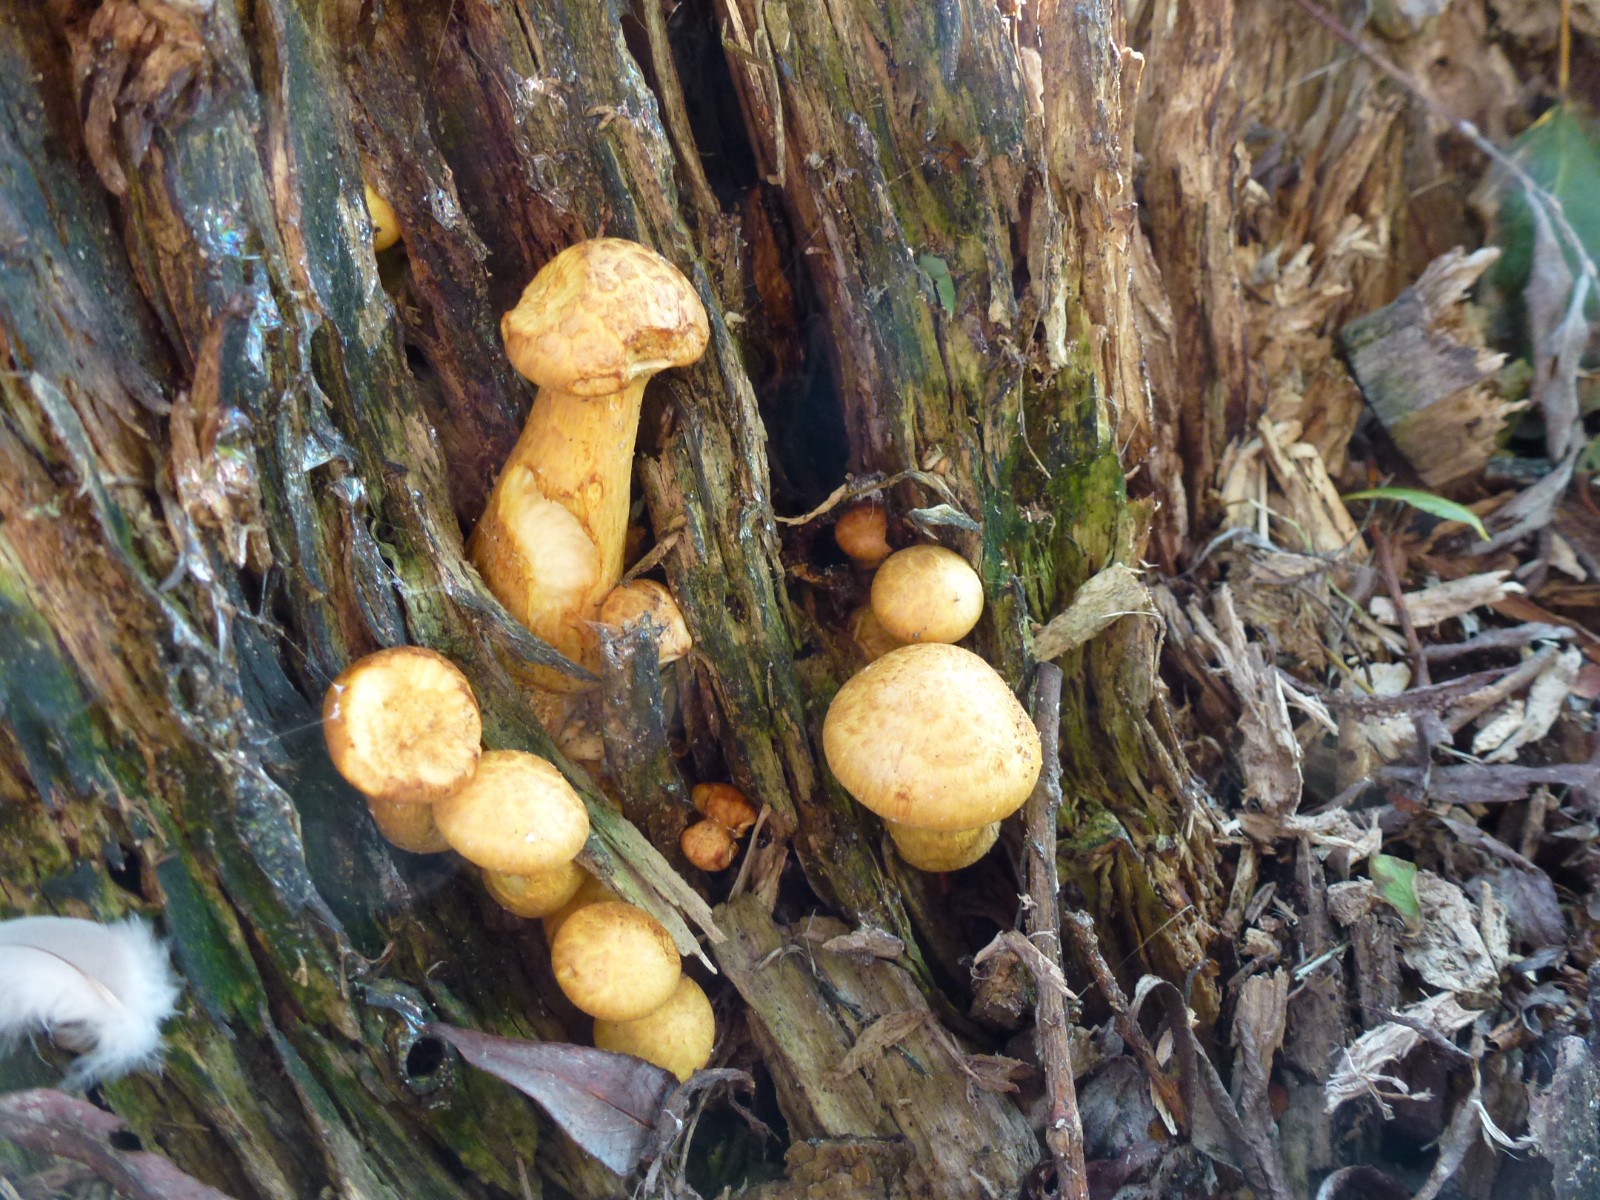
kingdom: Fungi
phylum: Basidiomycota
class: Agaricomycetes
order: Agaricales
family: Hymenogastraceae
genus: Gymnopilus
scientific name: Gymnopilus
